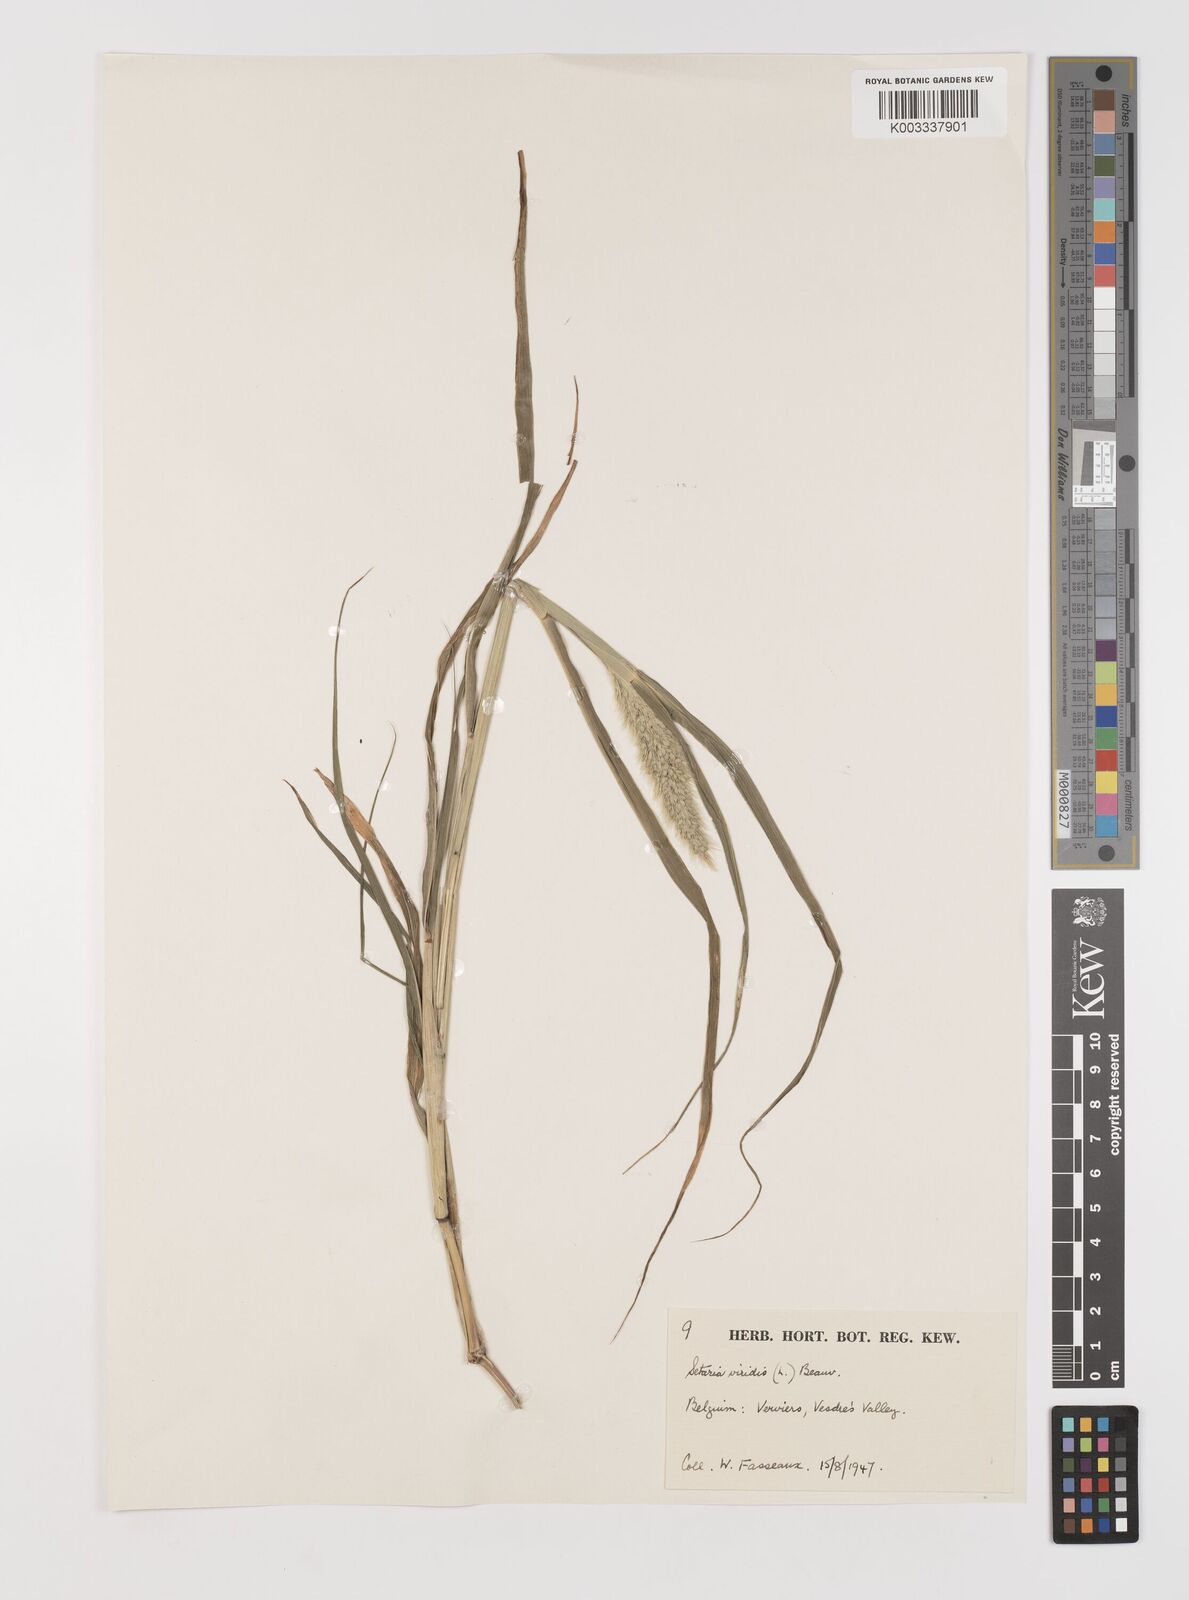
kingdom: Plantae
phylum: Tracheophyta
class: Liliopsida
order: Poales
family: Poaceae
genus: Setaria
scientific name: Setaria viridis
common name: Green bristlegrass
